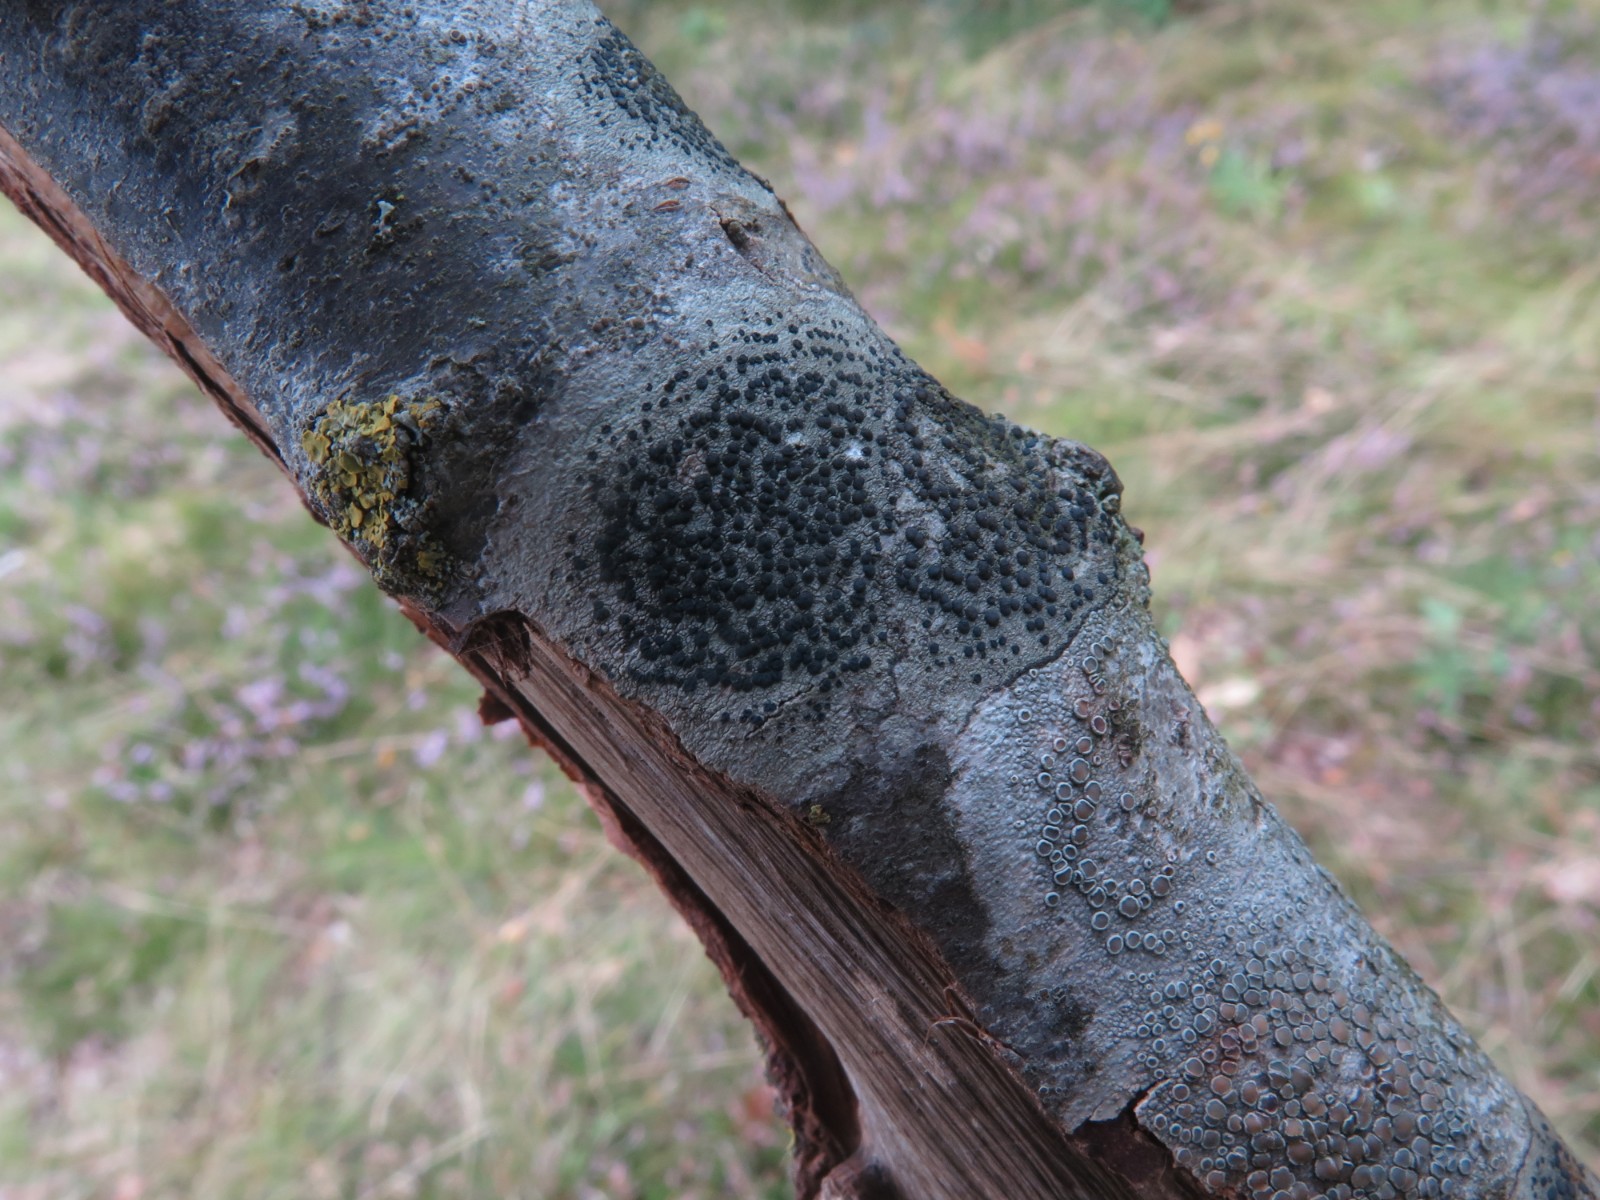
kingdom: Fungi
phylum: Ascomycota
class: Lecanoromycetes
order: Lecanorales
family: Lecanoraceae
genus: Lecidella
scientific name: Lecidella elaeochroma
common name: grågrøn skivelav
